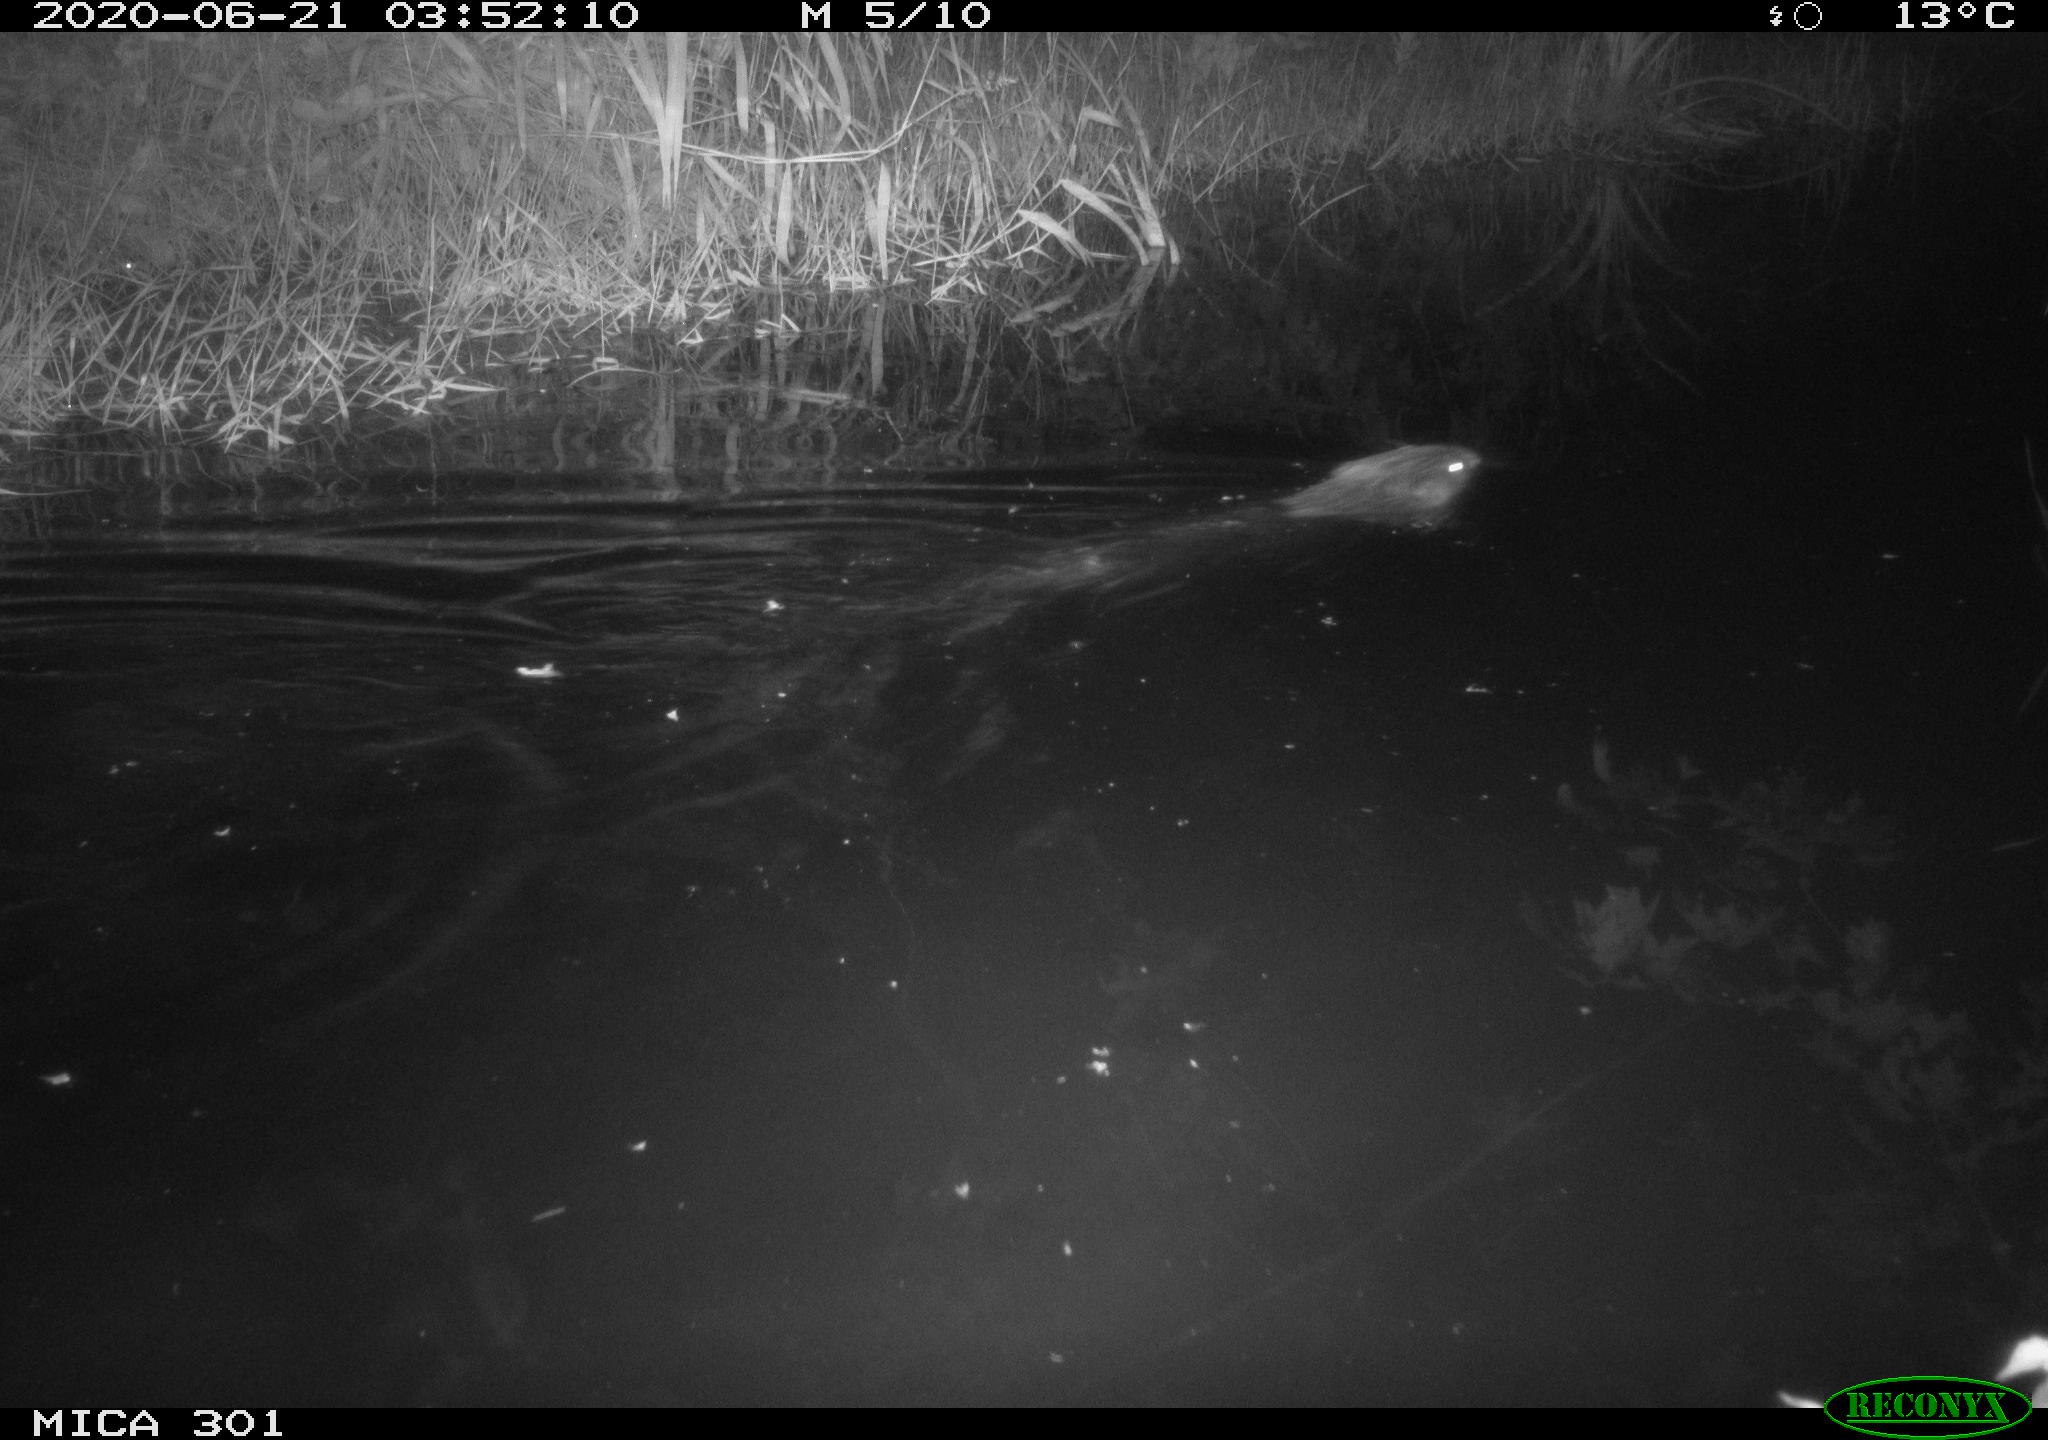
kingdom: Animalia
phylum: Chordata
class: Mammalia
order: Rodentia
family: Castoridae
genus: Castor
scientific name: Castor fiber
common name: Eurasian beaver
